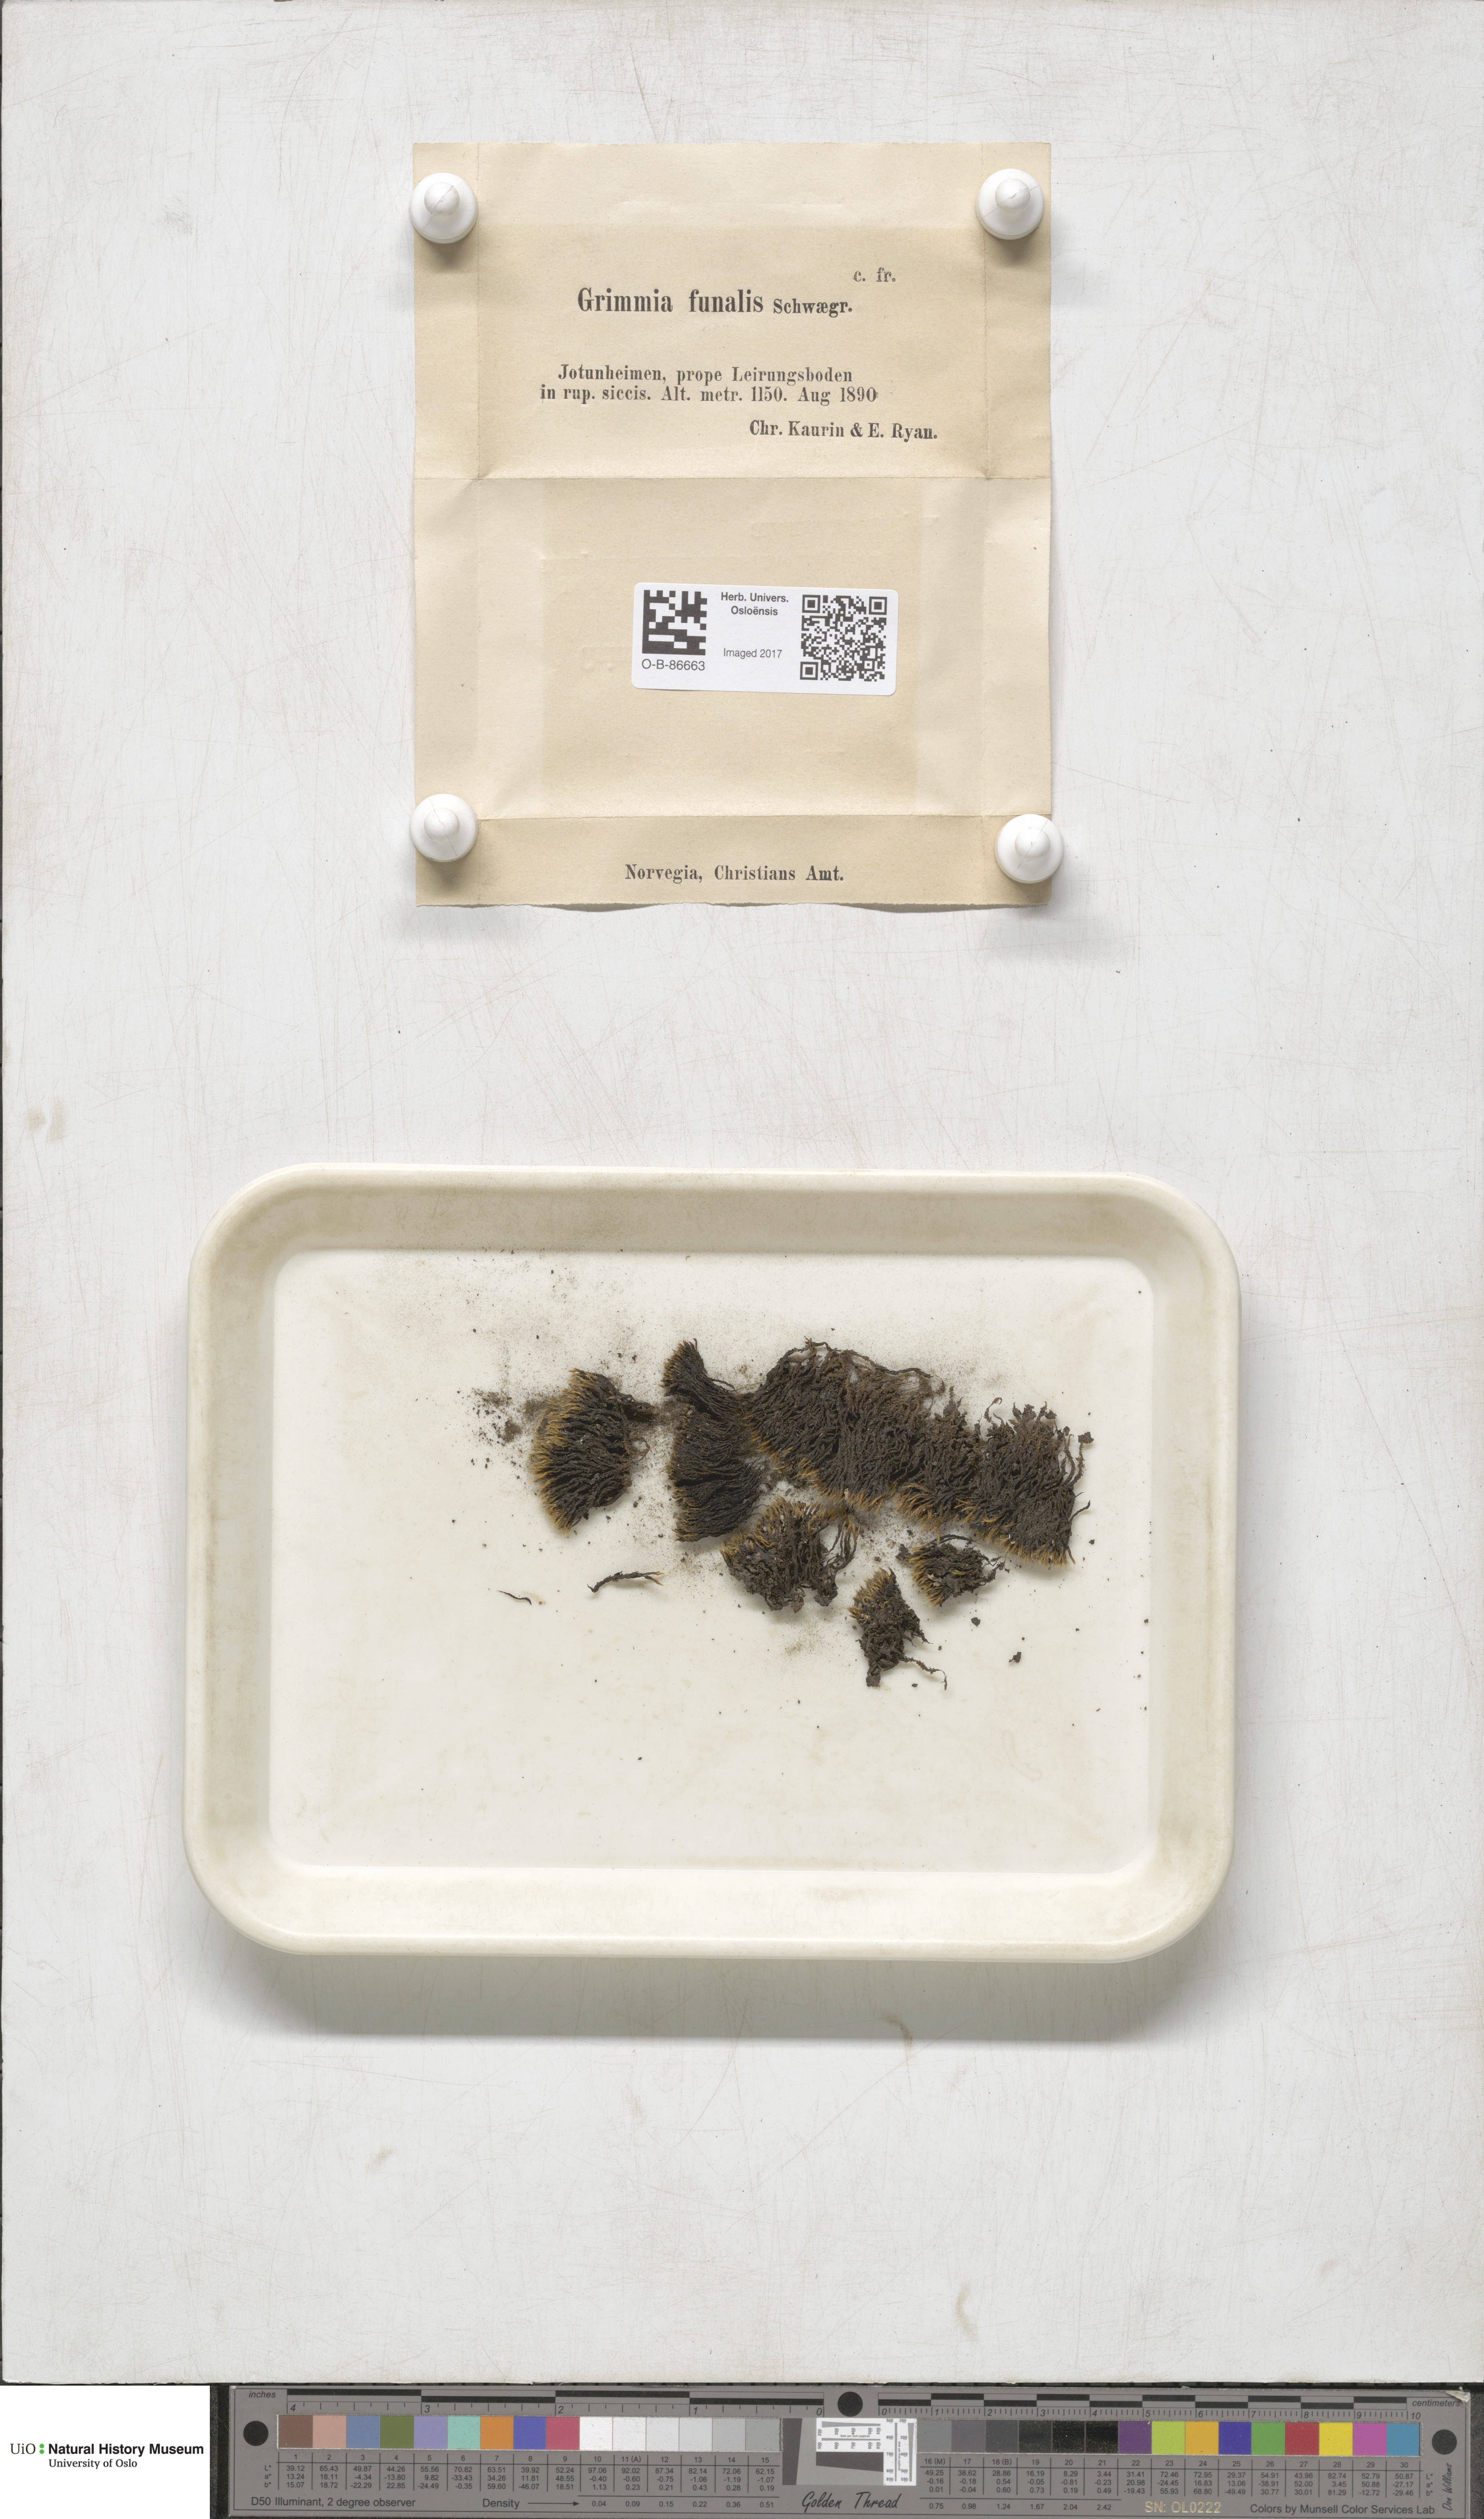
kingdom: Plantae
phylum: Bryophyta
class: Bryopsida
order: Grimmiales
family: Grimmiaceae
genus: Grimmia
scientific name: Grimmia funalis
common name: String grimmia
